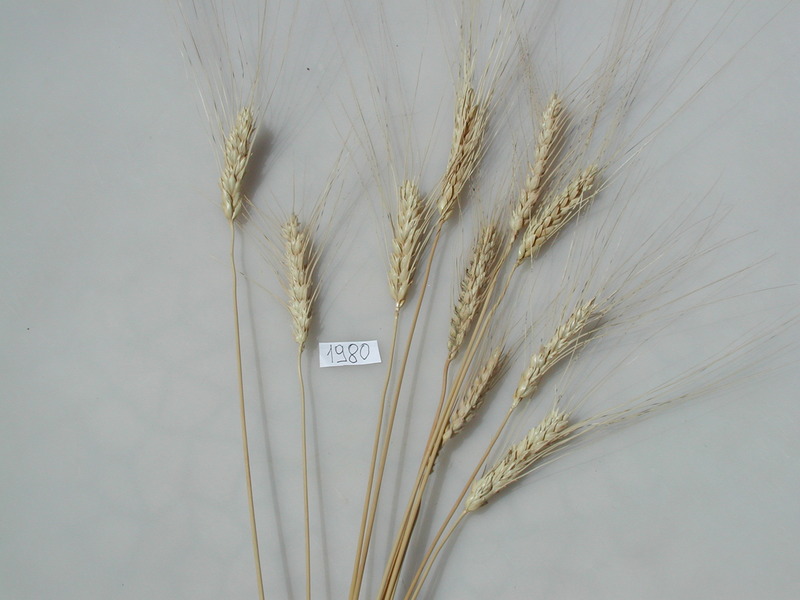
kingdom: Plantae
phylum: Tracheophyta
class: Liliopsida
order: Poales
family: Poaceae
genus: Triticum
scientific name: Triticum aestivum
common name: Wheat
